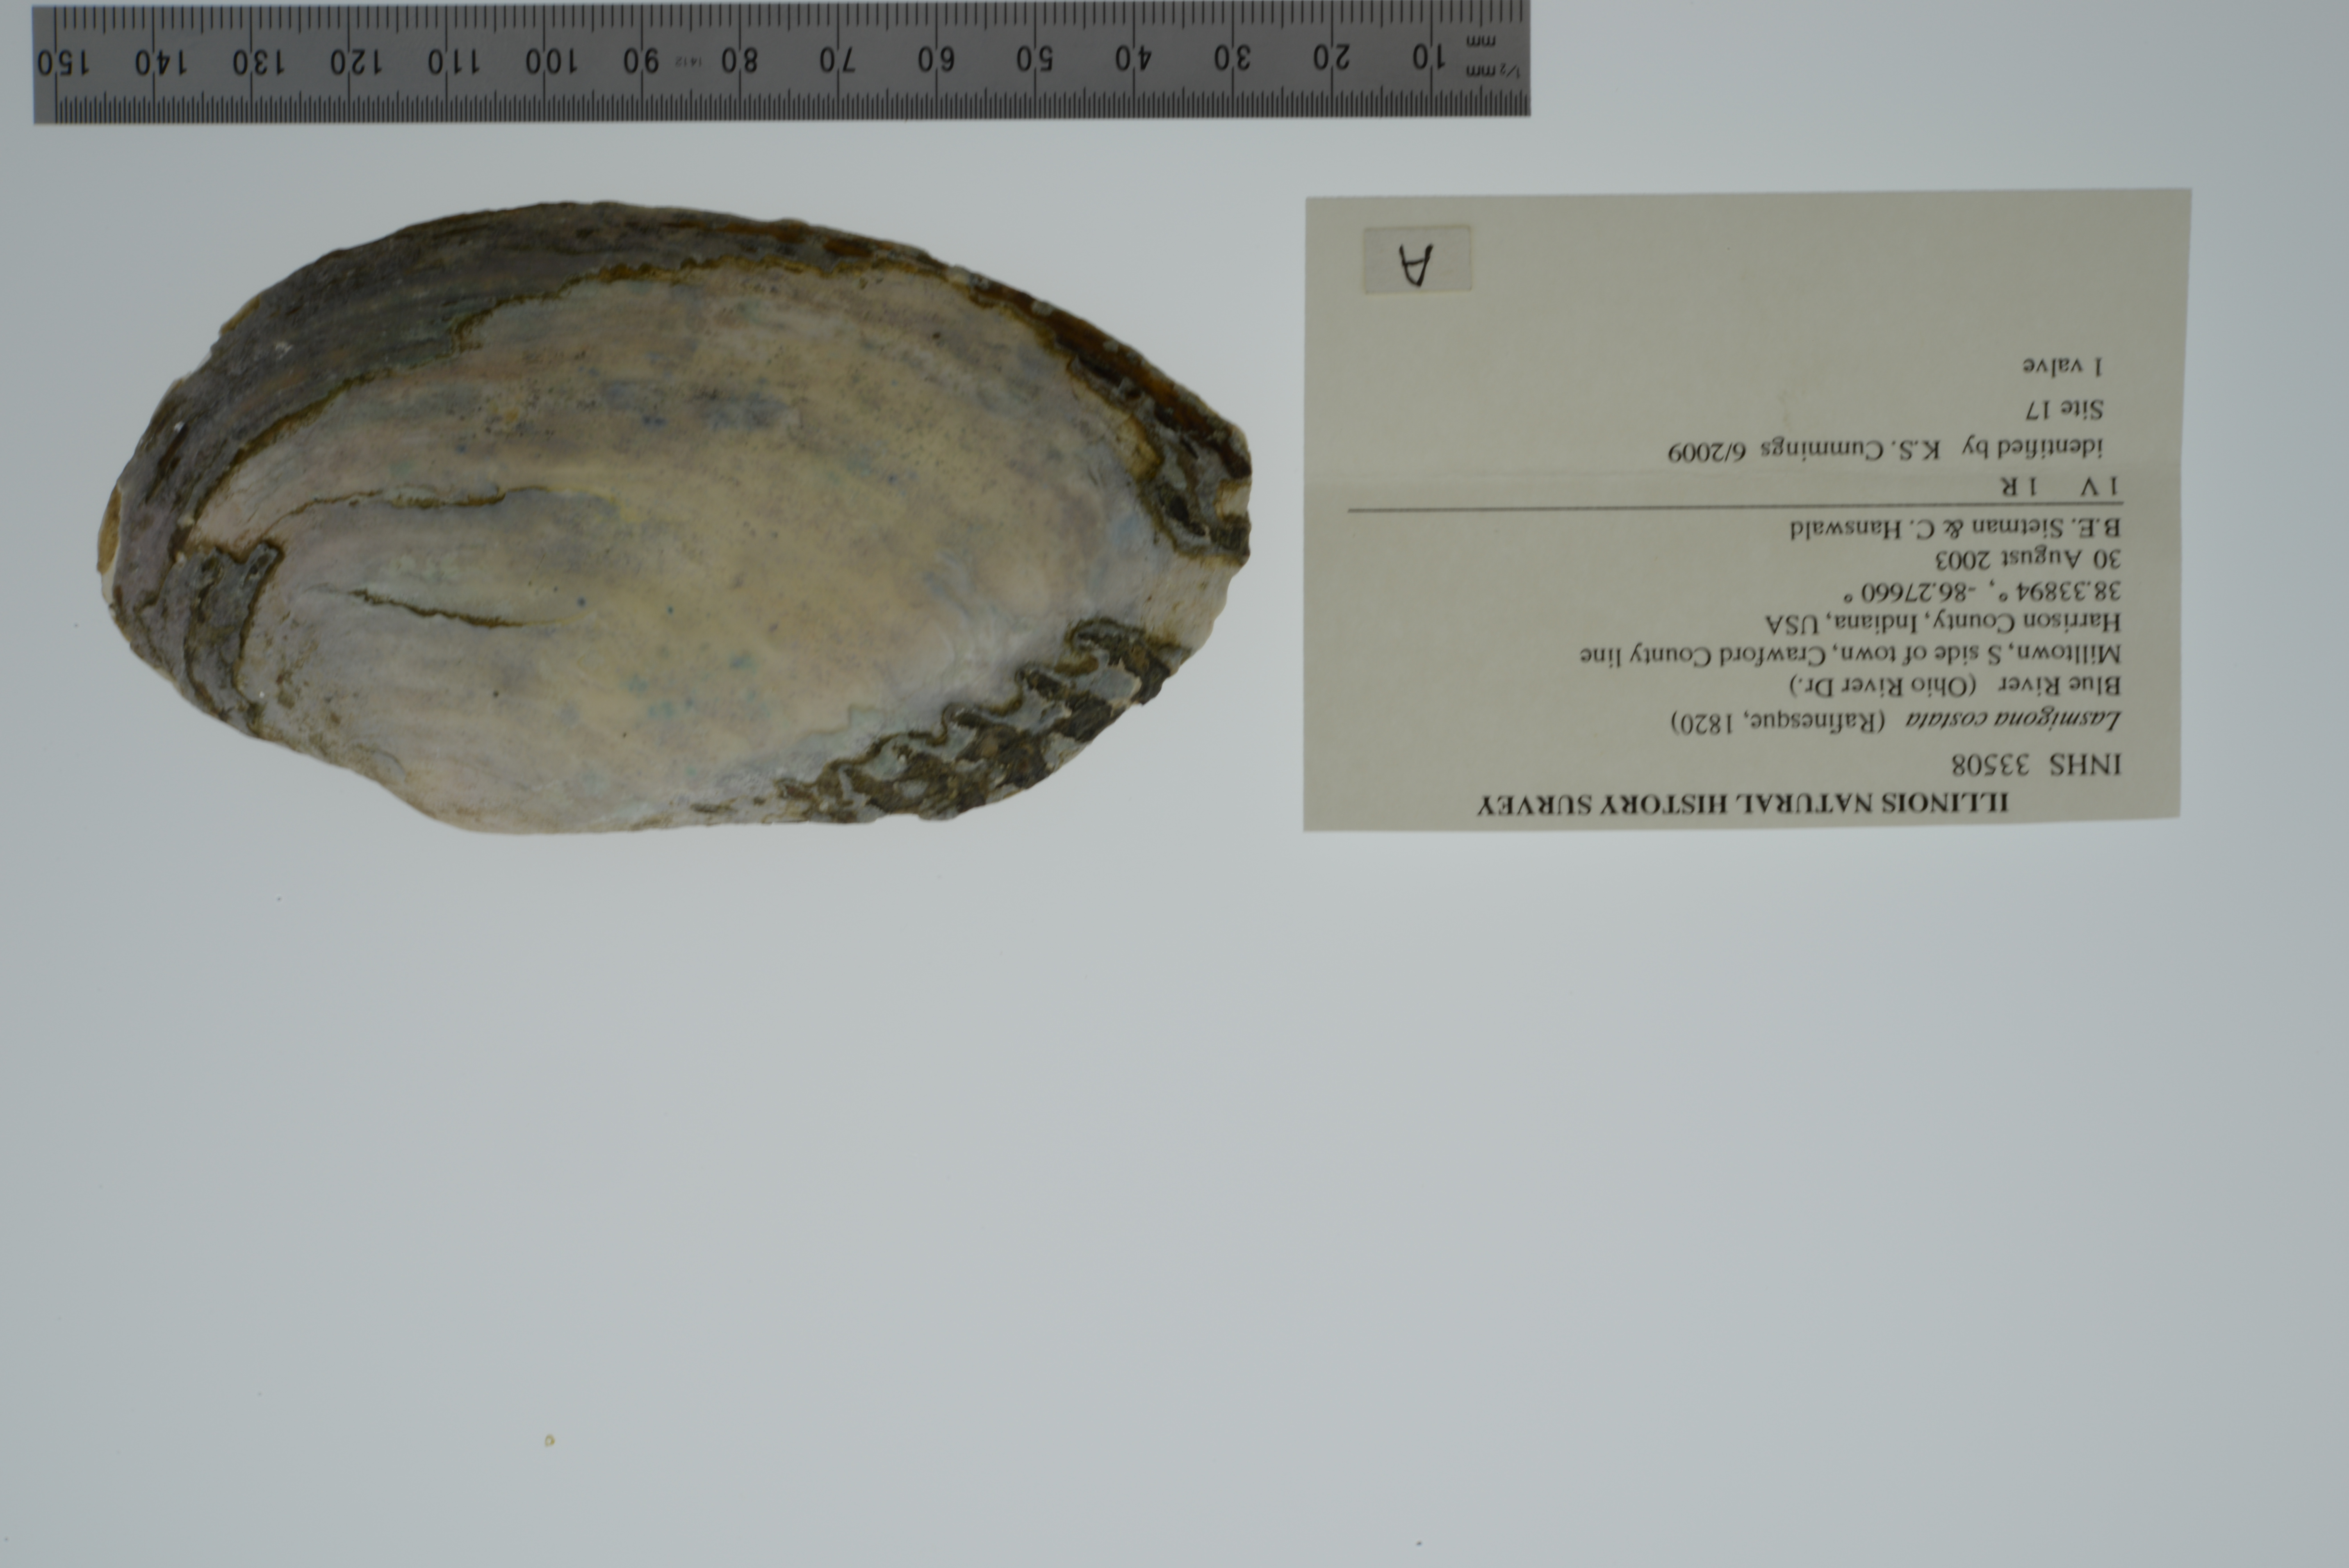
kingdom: Animalia
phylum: Mollusca
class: Bivalvia
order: Unionida
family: Unionidae
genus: Lasmigona
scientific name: Lasmigona costata
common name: Flutedshell
